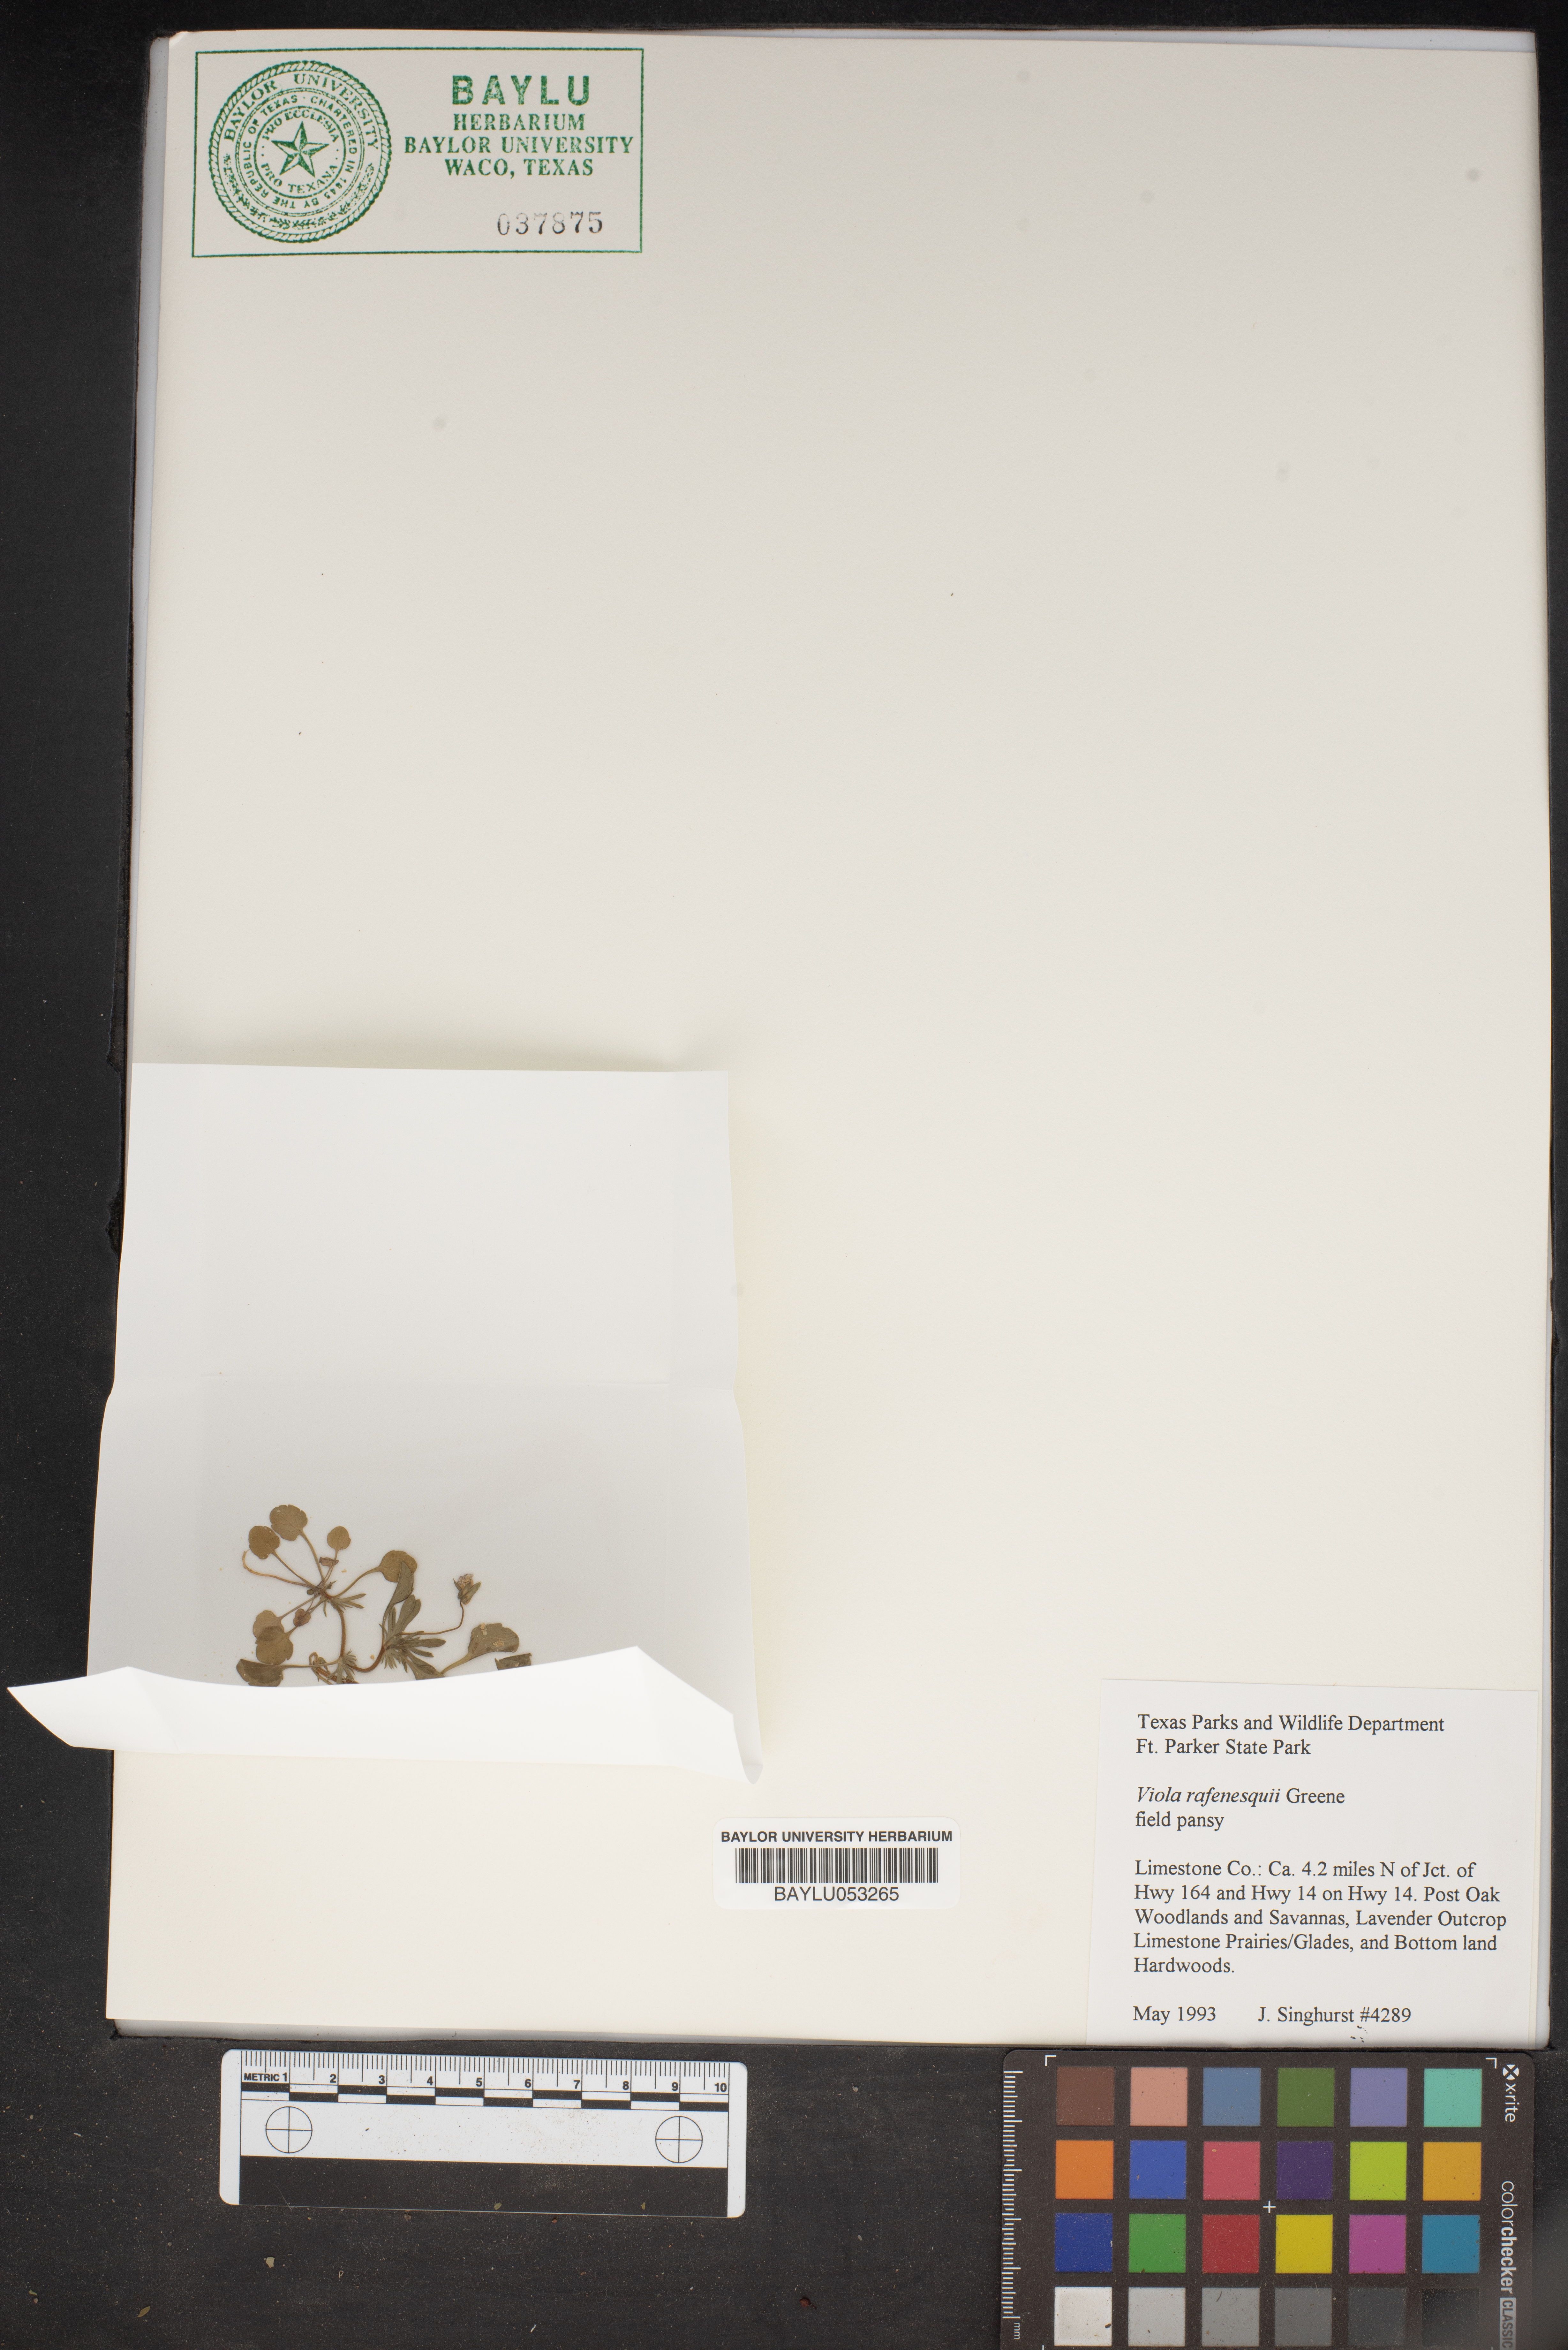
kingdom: Plantae
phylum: Tracheophyta
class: Magnoliopsida
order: Malpighiales
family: Violaceae
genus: Viola
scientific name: Viola rafinesquei
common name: American field pansy
